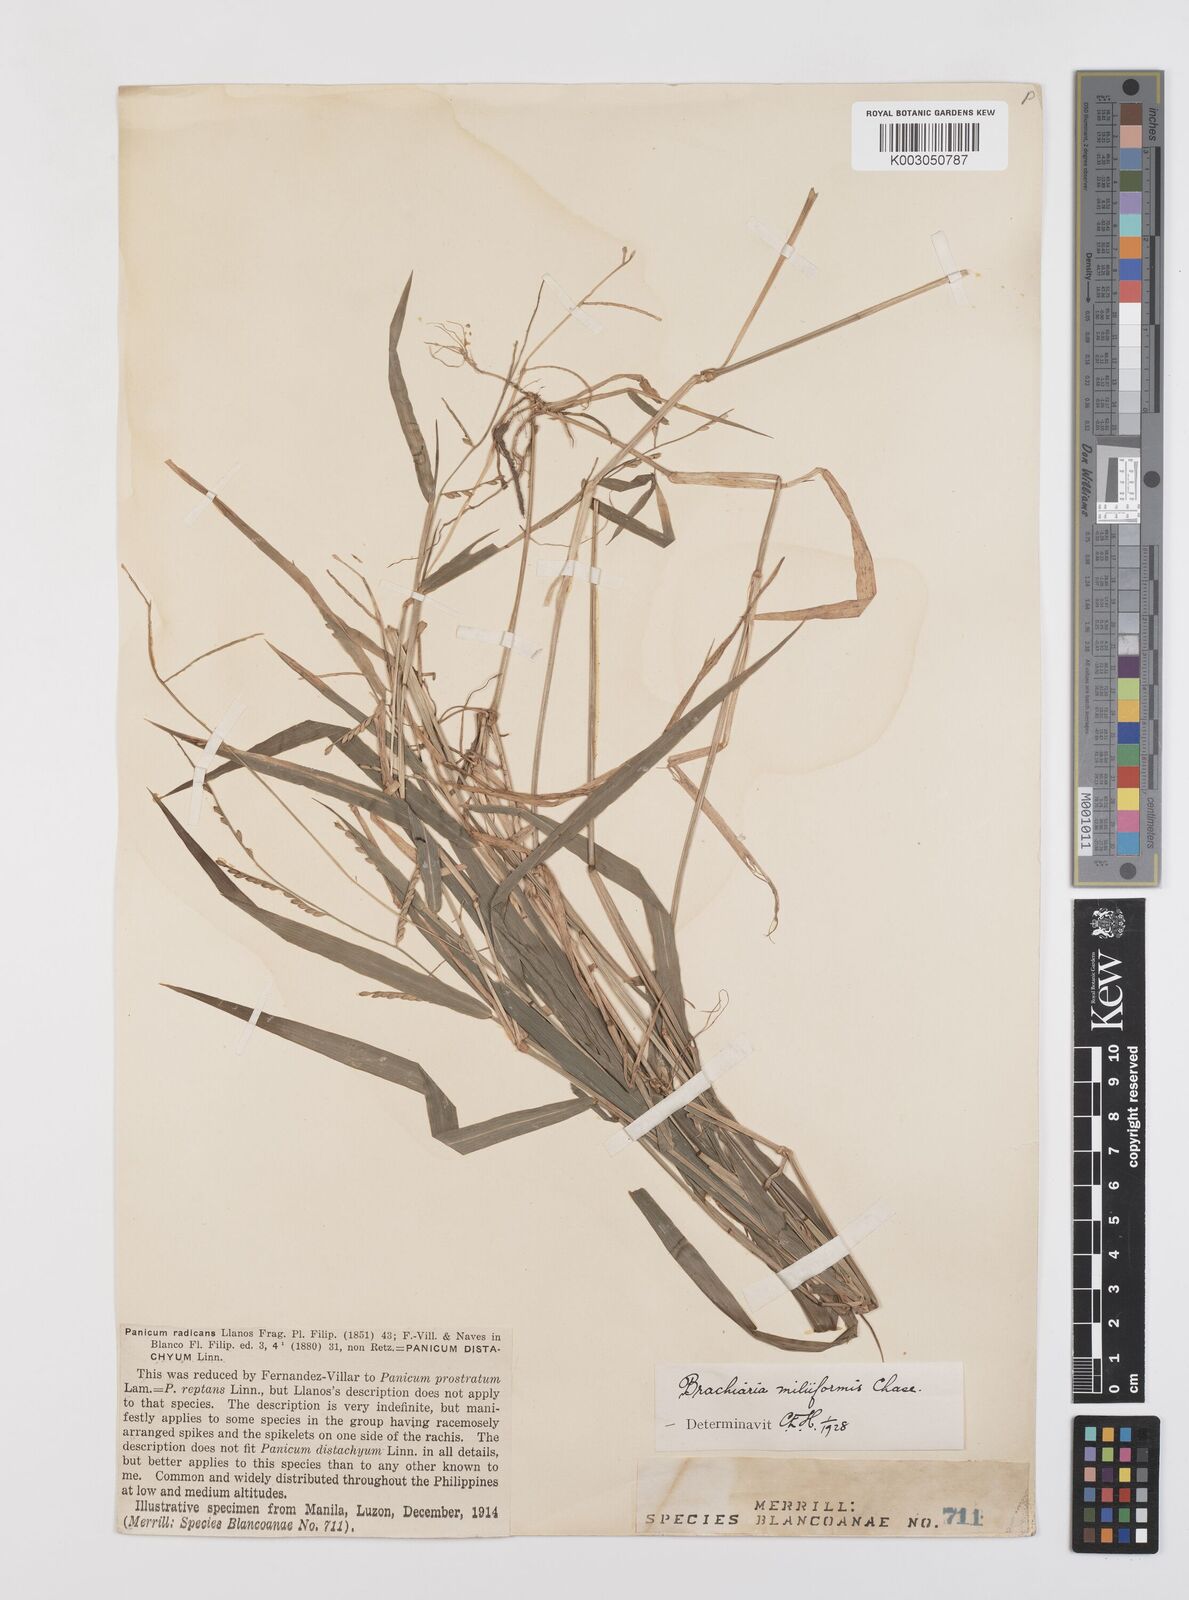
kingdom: Plantae
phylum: Tracheophyta
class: Liliopsida
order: Poales
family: Poaceae
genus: Urochloa
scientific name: Urochloa subquadripara
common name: Armgrass millet
